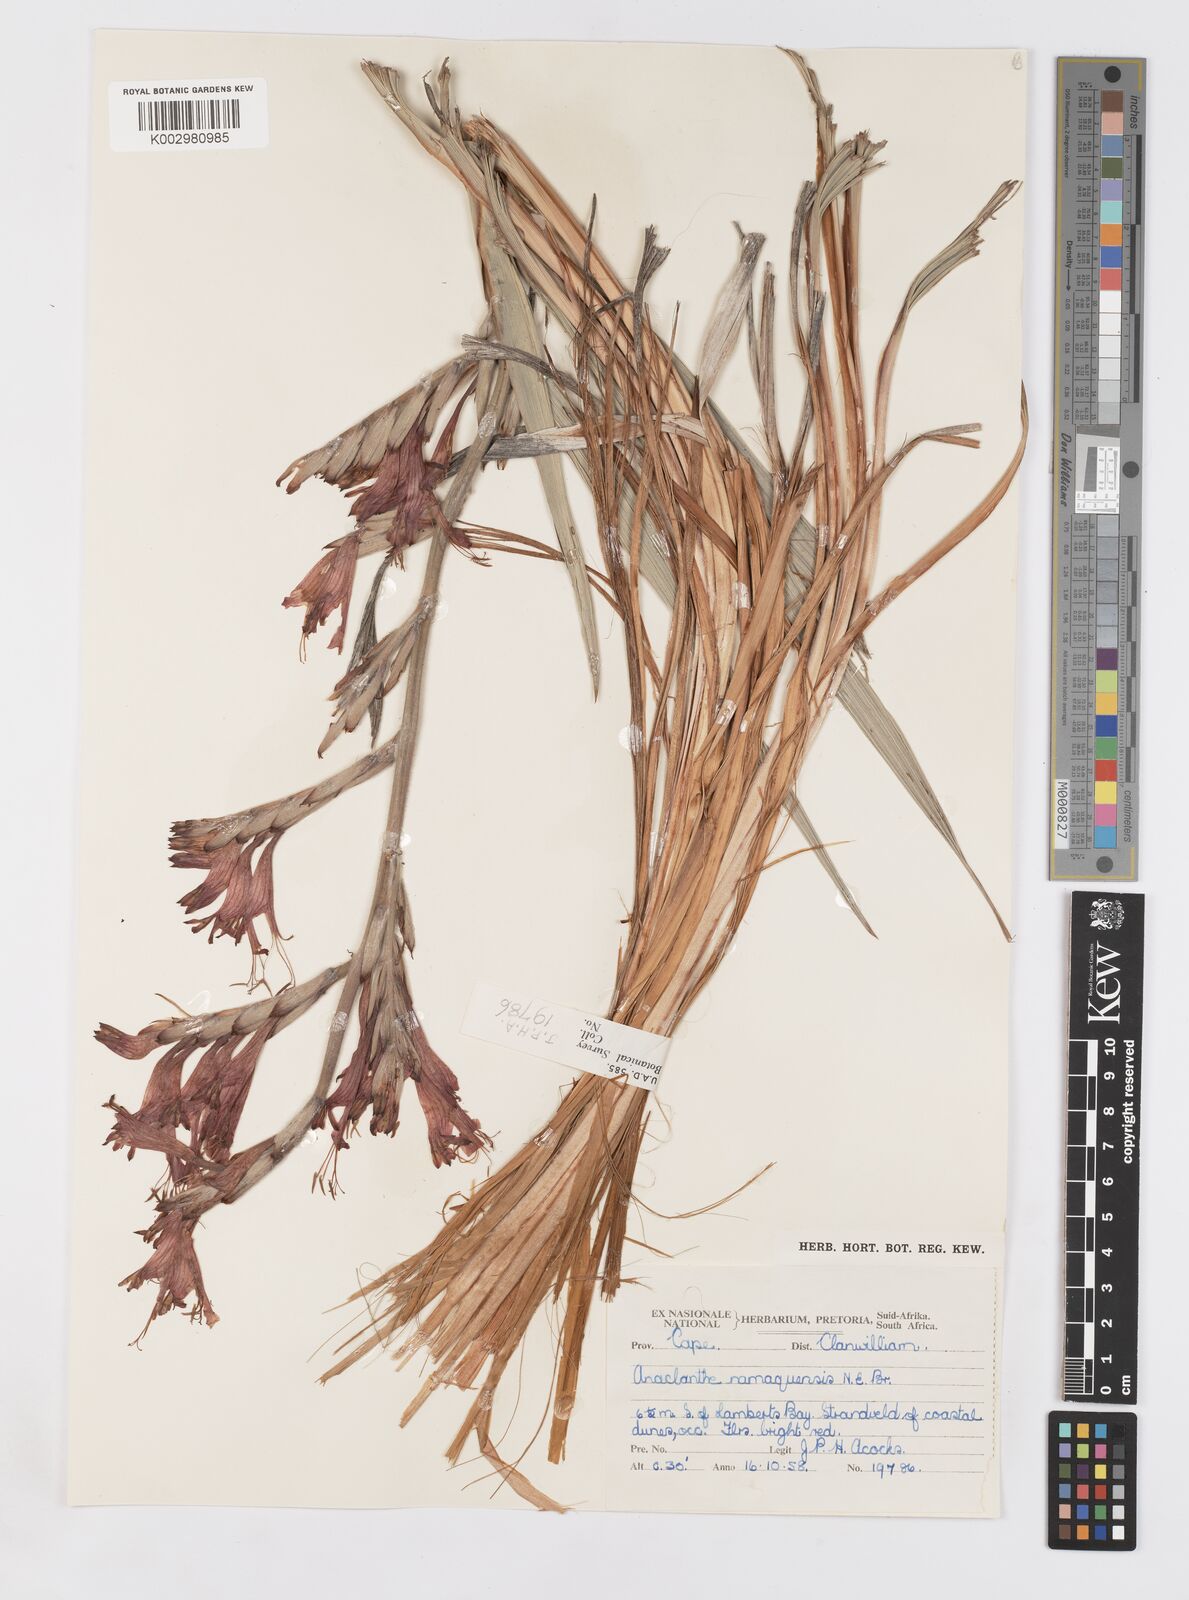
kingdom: Plantae
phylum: Tracheophyta
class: Liliopsida
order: Asparagales
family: Iridaceae
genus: Babiana
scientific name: Babiana
